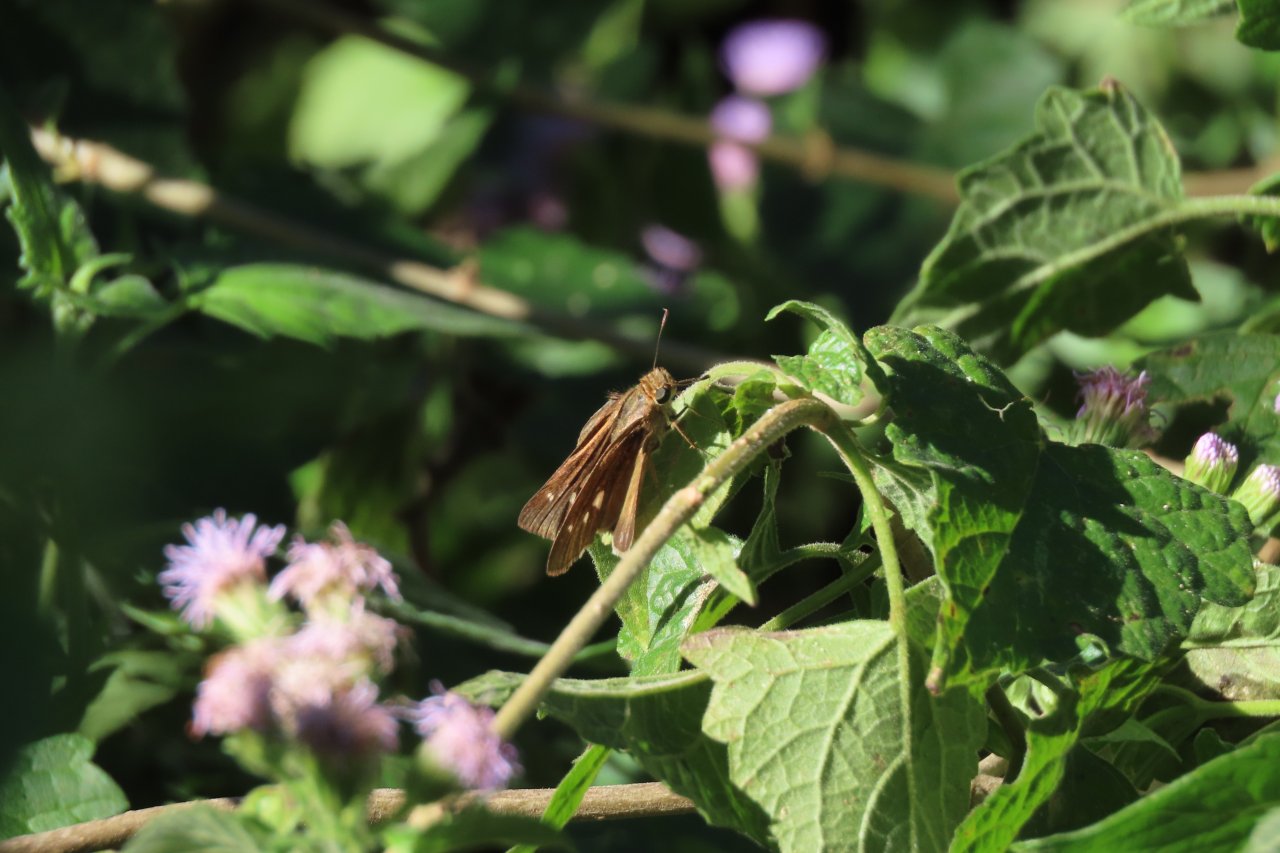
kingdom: Animalia
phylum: Arthropoda
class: Insecta
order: Lepidoptera
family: Hesperiidae
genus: Panoquina
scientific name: Panoquina ocola
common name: Ocola Skipper
